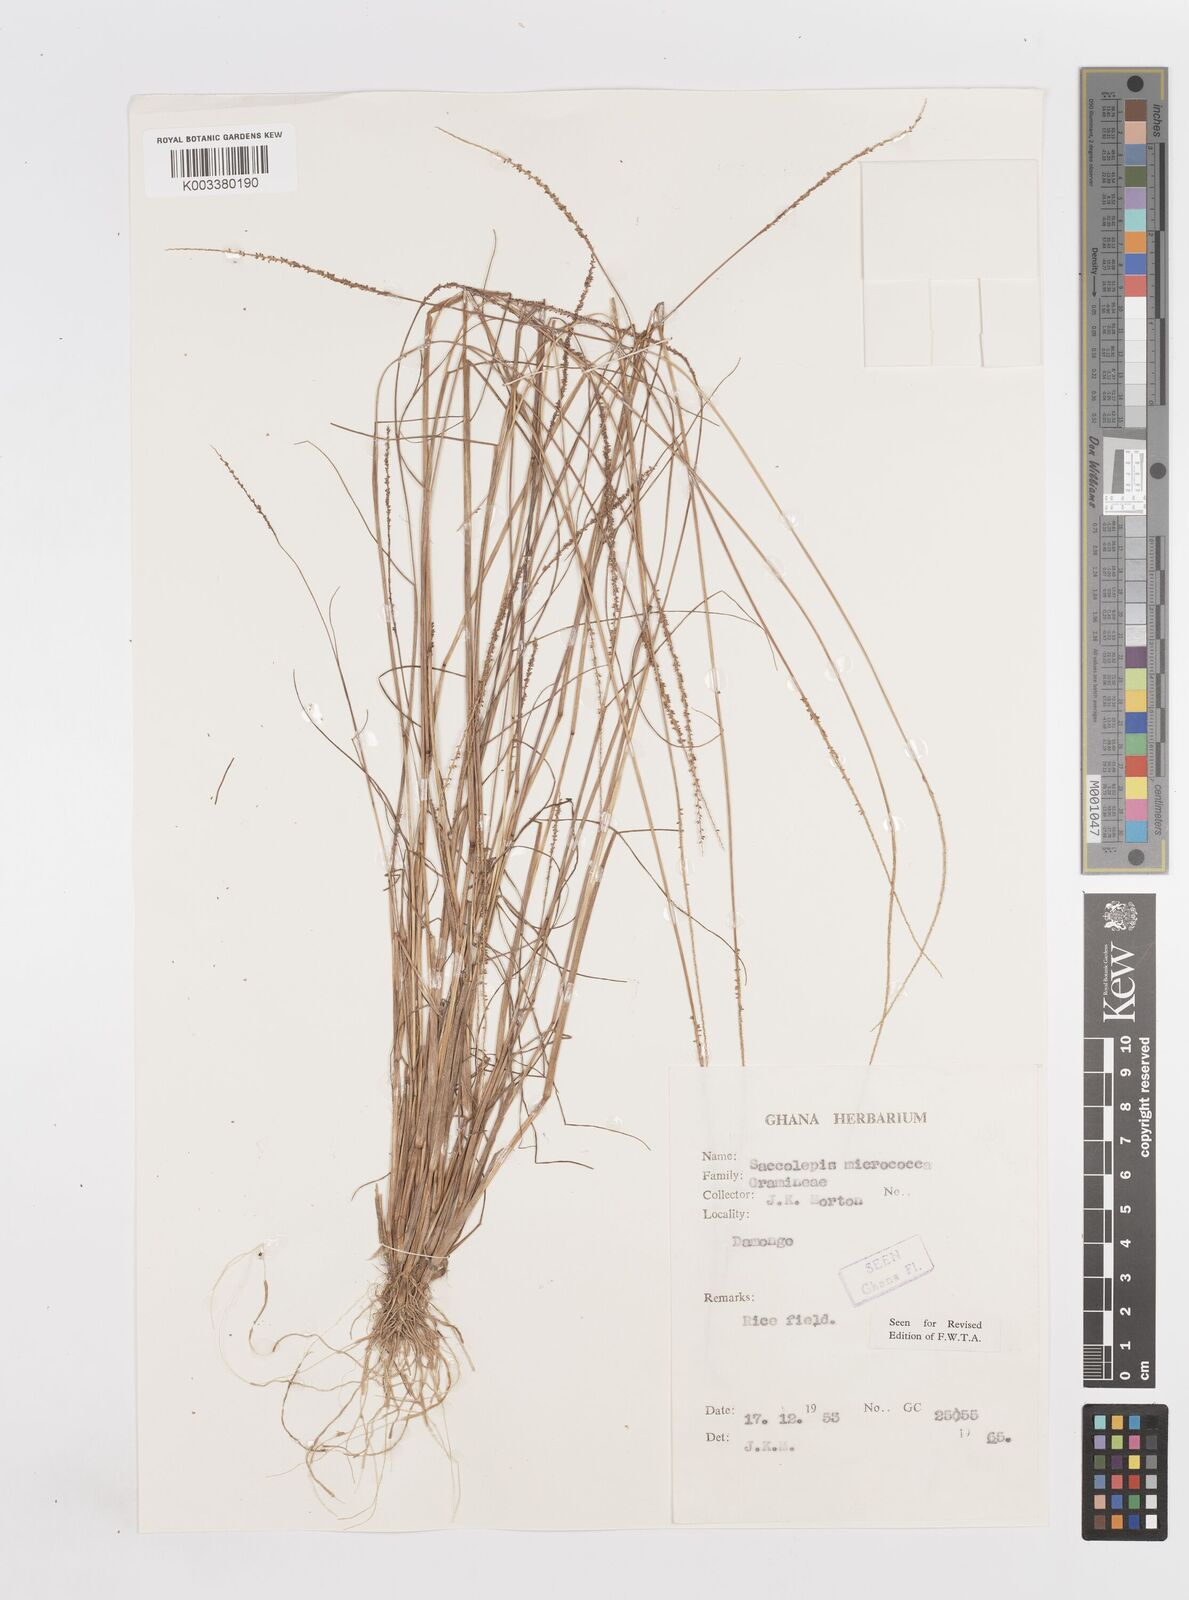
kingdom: Plantae
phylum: Tracheophyta
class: Liliopsida
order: Poales
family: Poaceae
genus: Sacciolepis
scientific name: Sacciolepis micrococca
